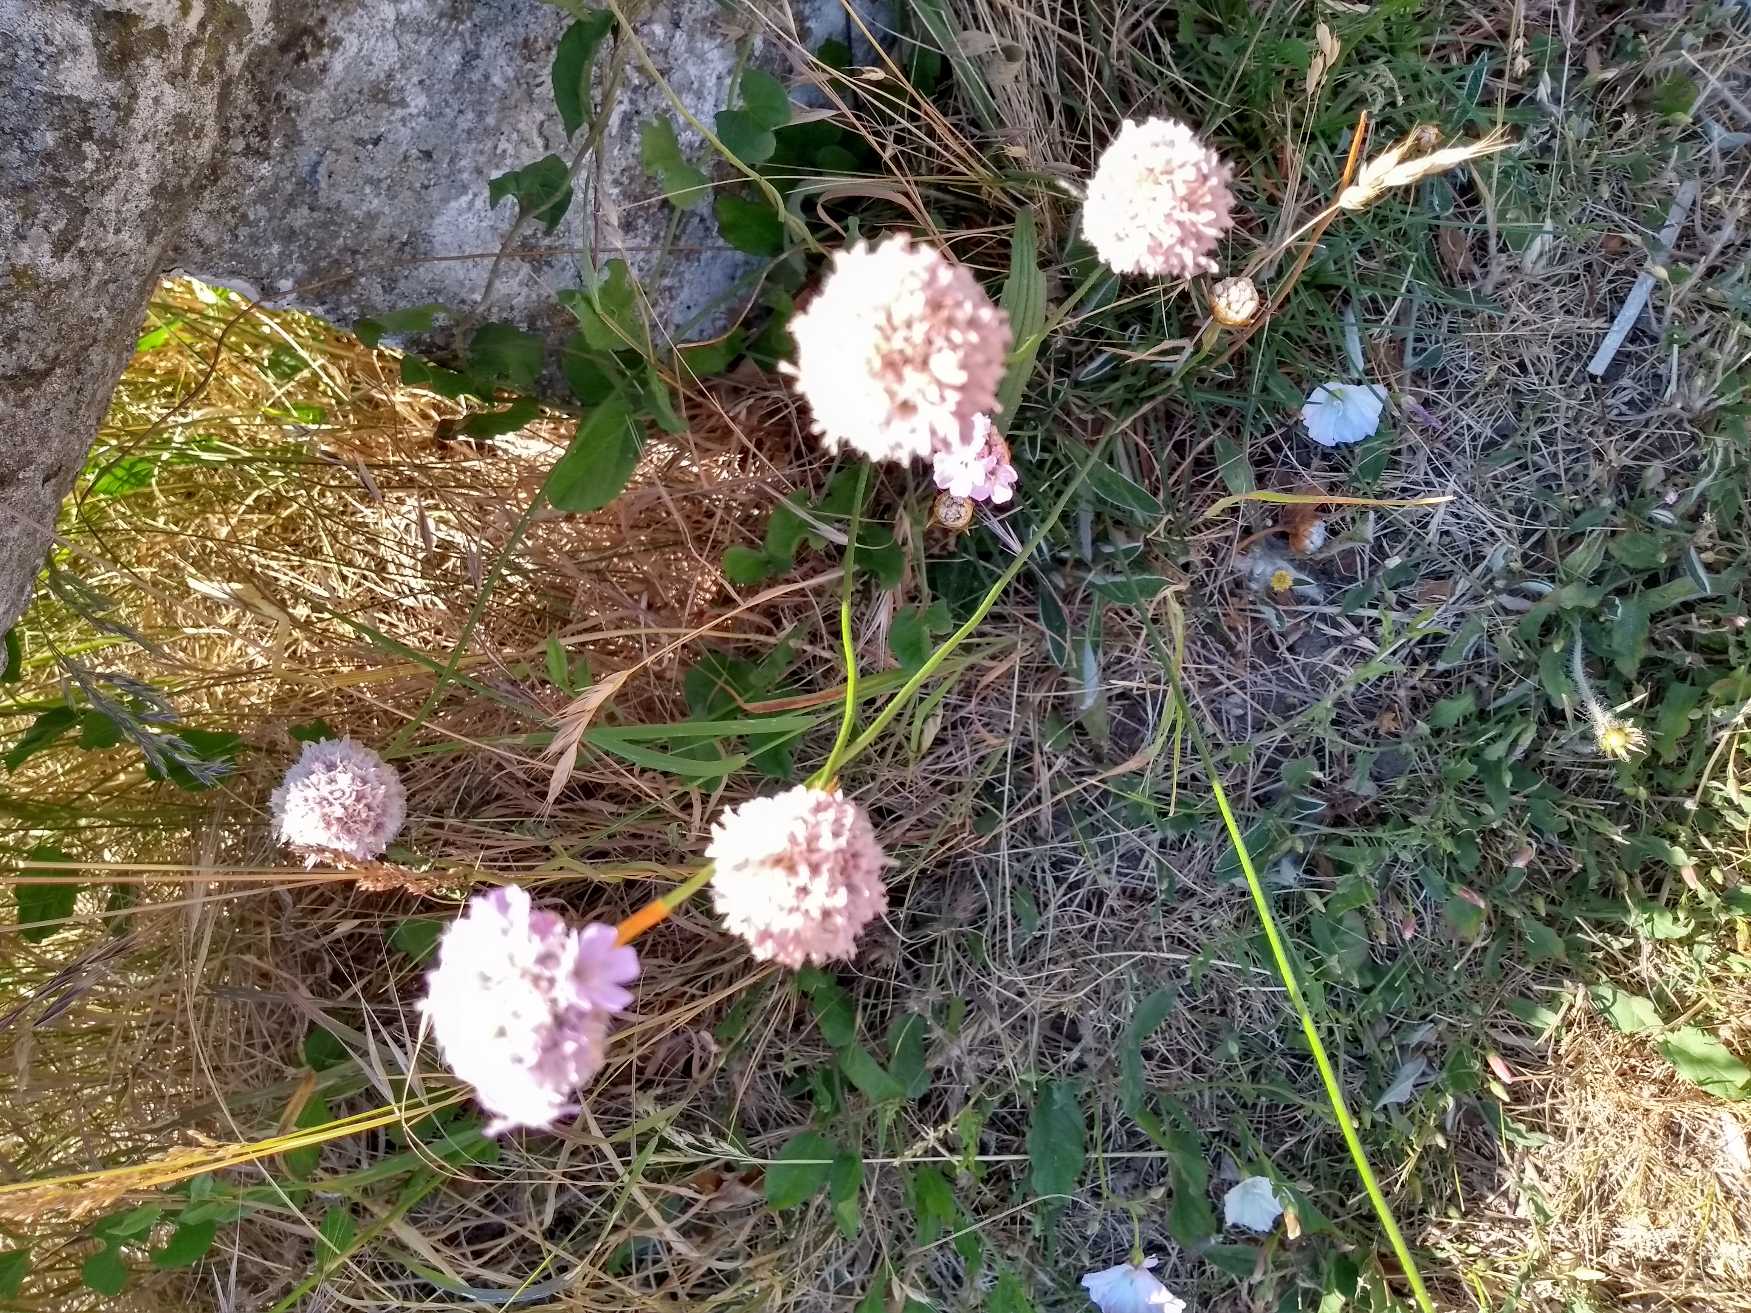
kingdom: Plantae
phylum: Tracheophyta
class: Magnoliopsida
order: Caryophyllales
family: Plumbaginaceae
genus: Armeria
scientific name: Armeria maritima
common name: Engelskgræs
